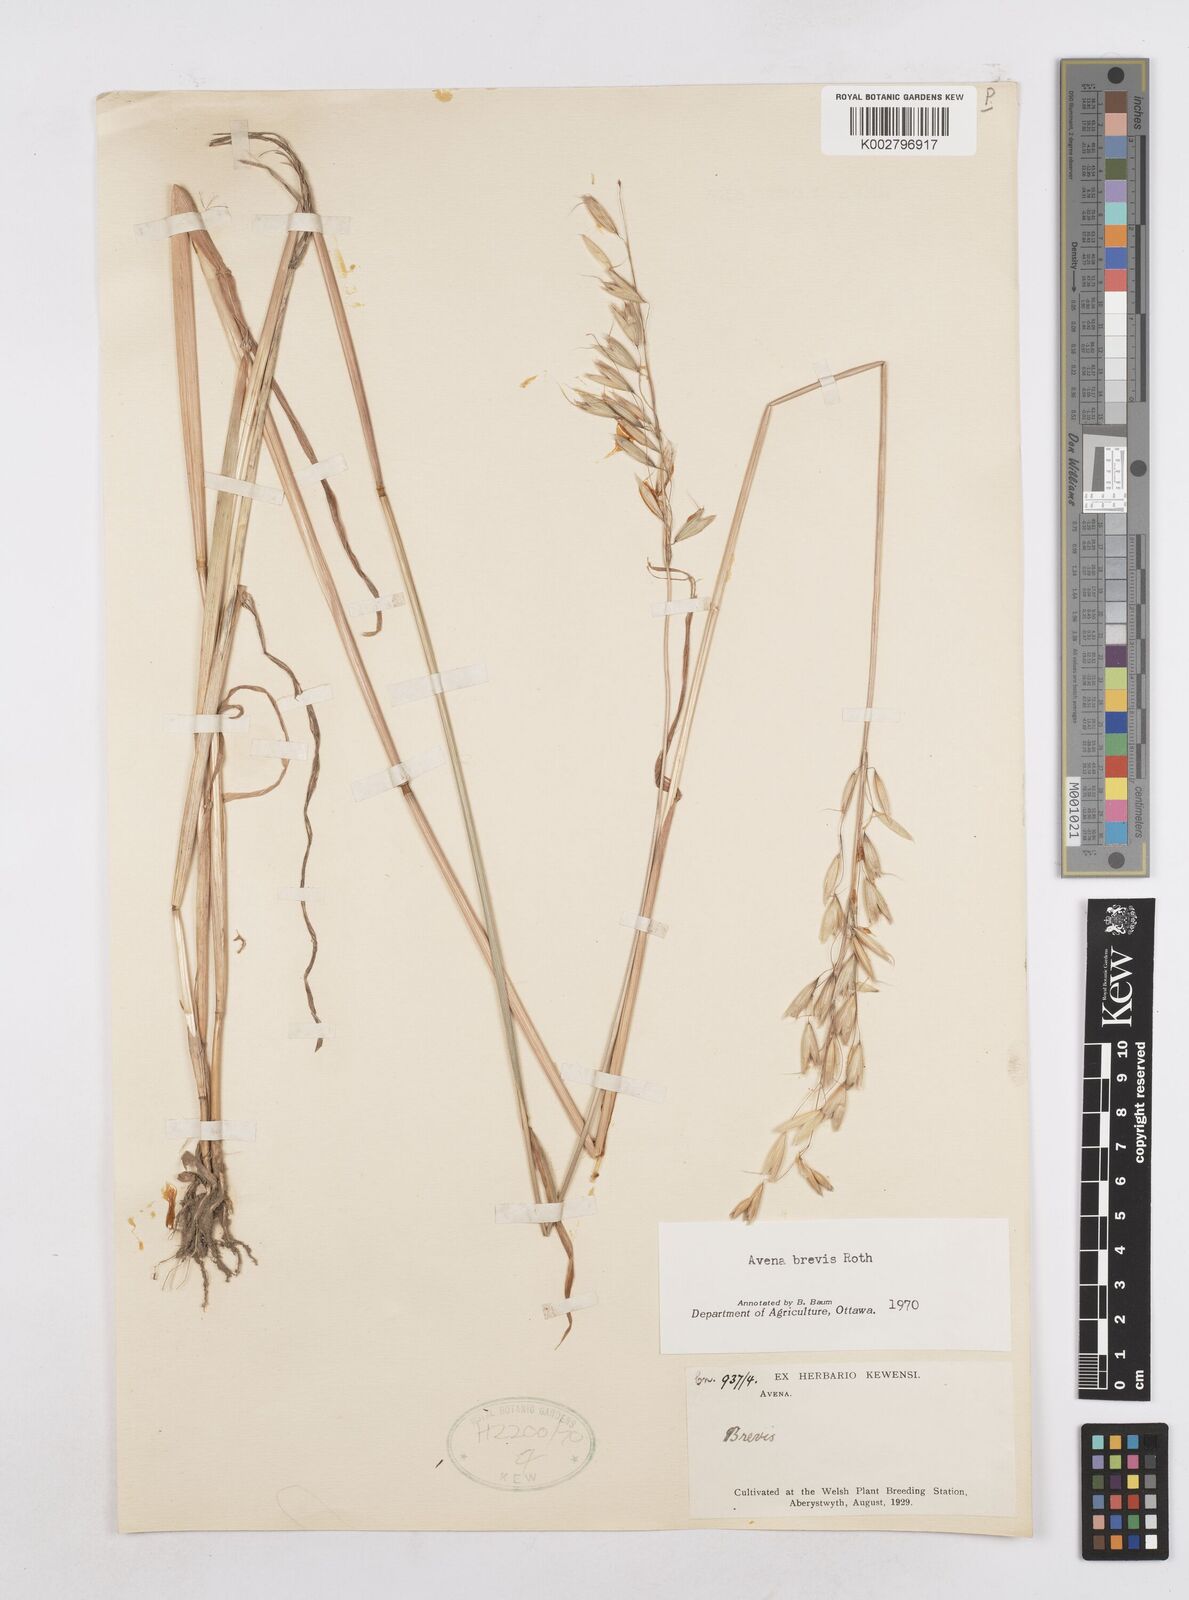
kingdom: Plantae
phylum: Tracheophyta
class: Liliopsida
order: Poales
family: Poaceae
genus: Avena
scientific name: Avena brevis
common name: Short oat
